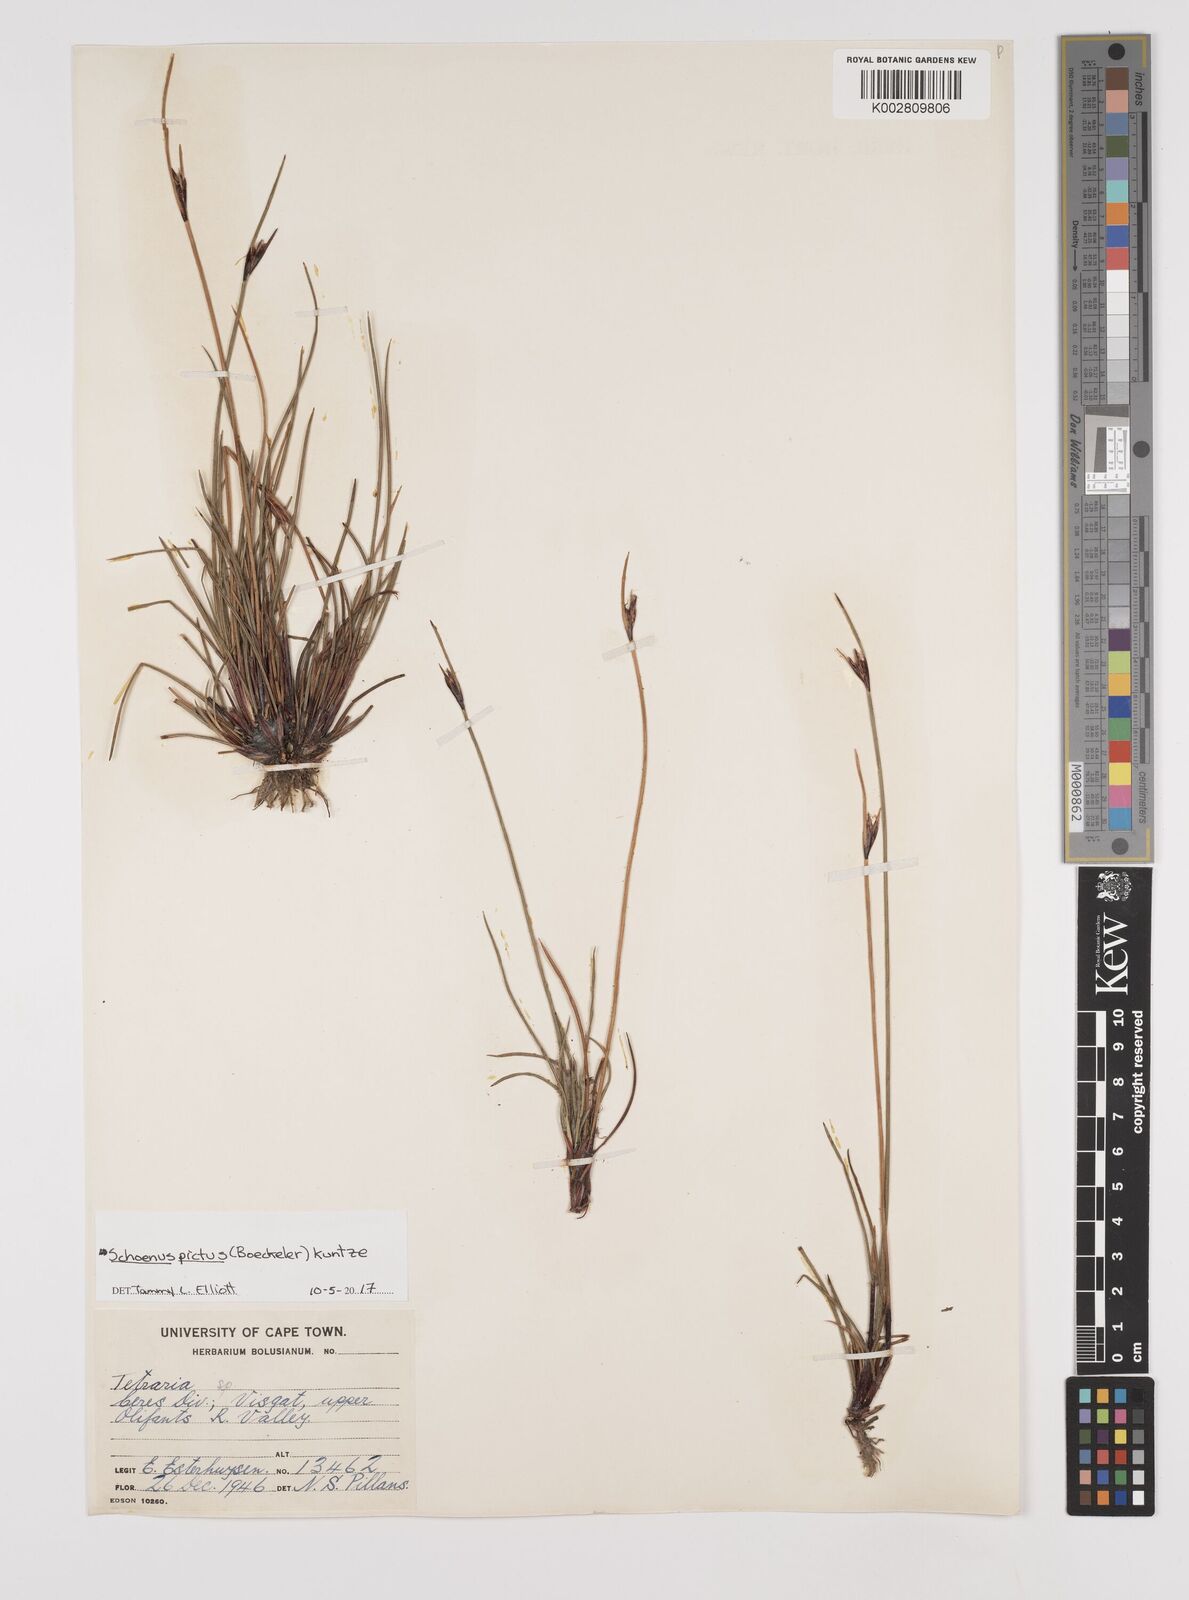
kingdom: Plantae
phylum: Tracheophyta
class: Liliopsida
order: Poales
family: Cyperaceae
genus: Schoenus
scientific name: Schoenus pictus
